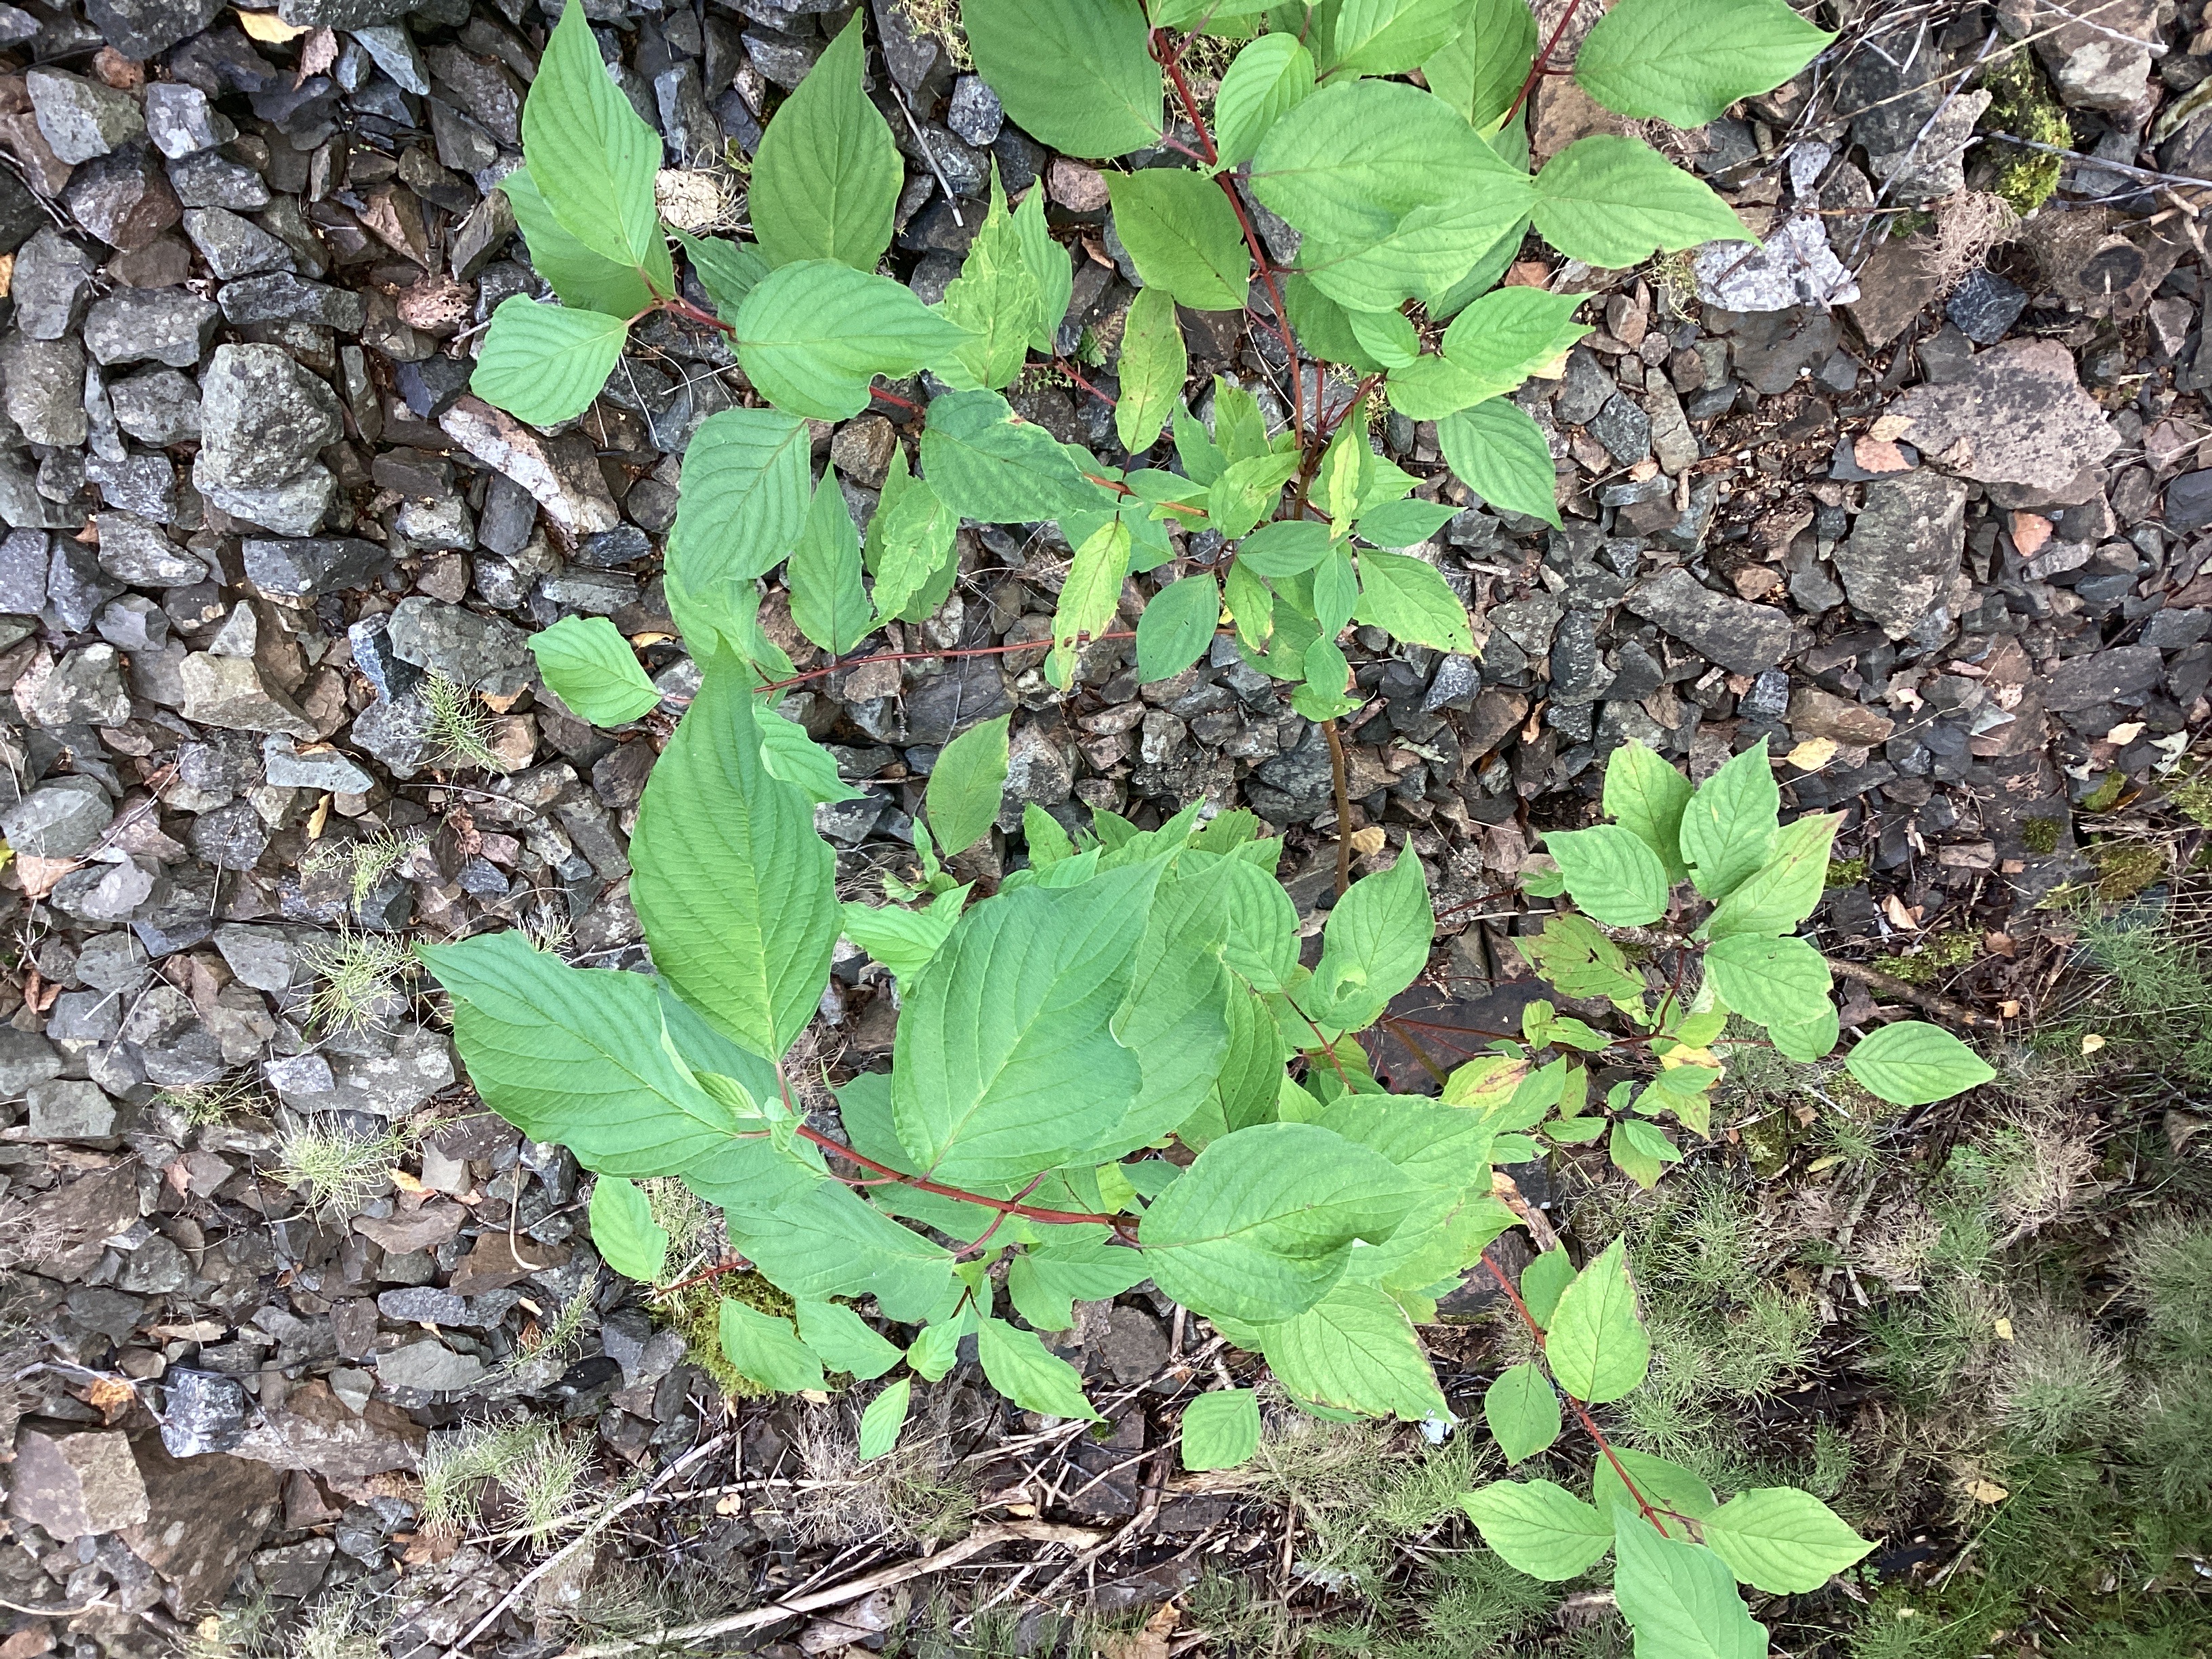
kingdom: Plantae
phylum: Tracheophyta
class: Magnoliopsida
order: Cornales
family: Cornaceae
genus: Cornus
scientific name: Cornus alba
